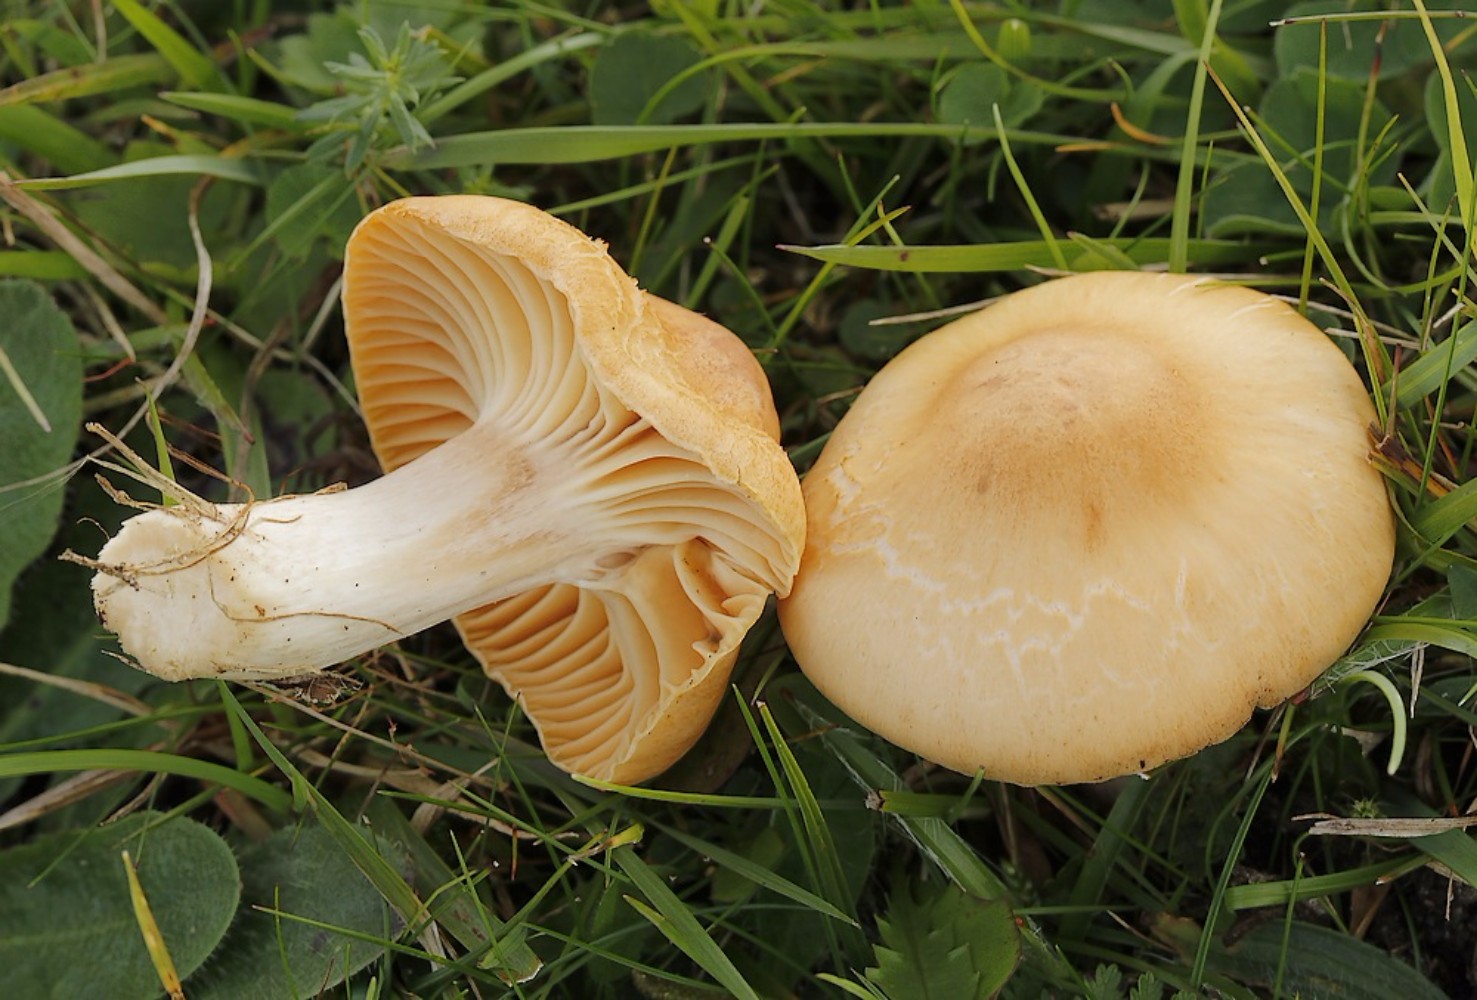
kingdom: Fungi
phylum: Basidiomycota
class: Agaricomycetes
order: Agaricales
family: Hygrophoraceae
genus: Cuphophyllus
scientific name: Cuphophyllus pratensis
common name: eng-vokshat
